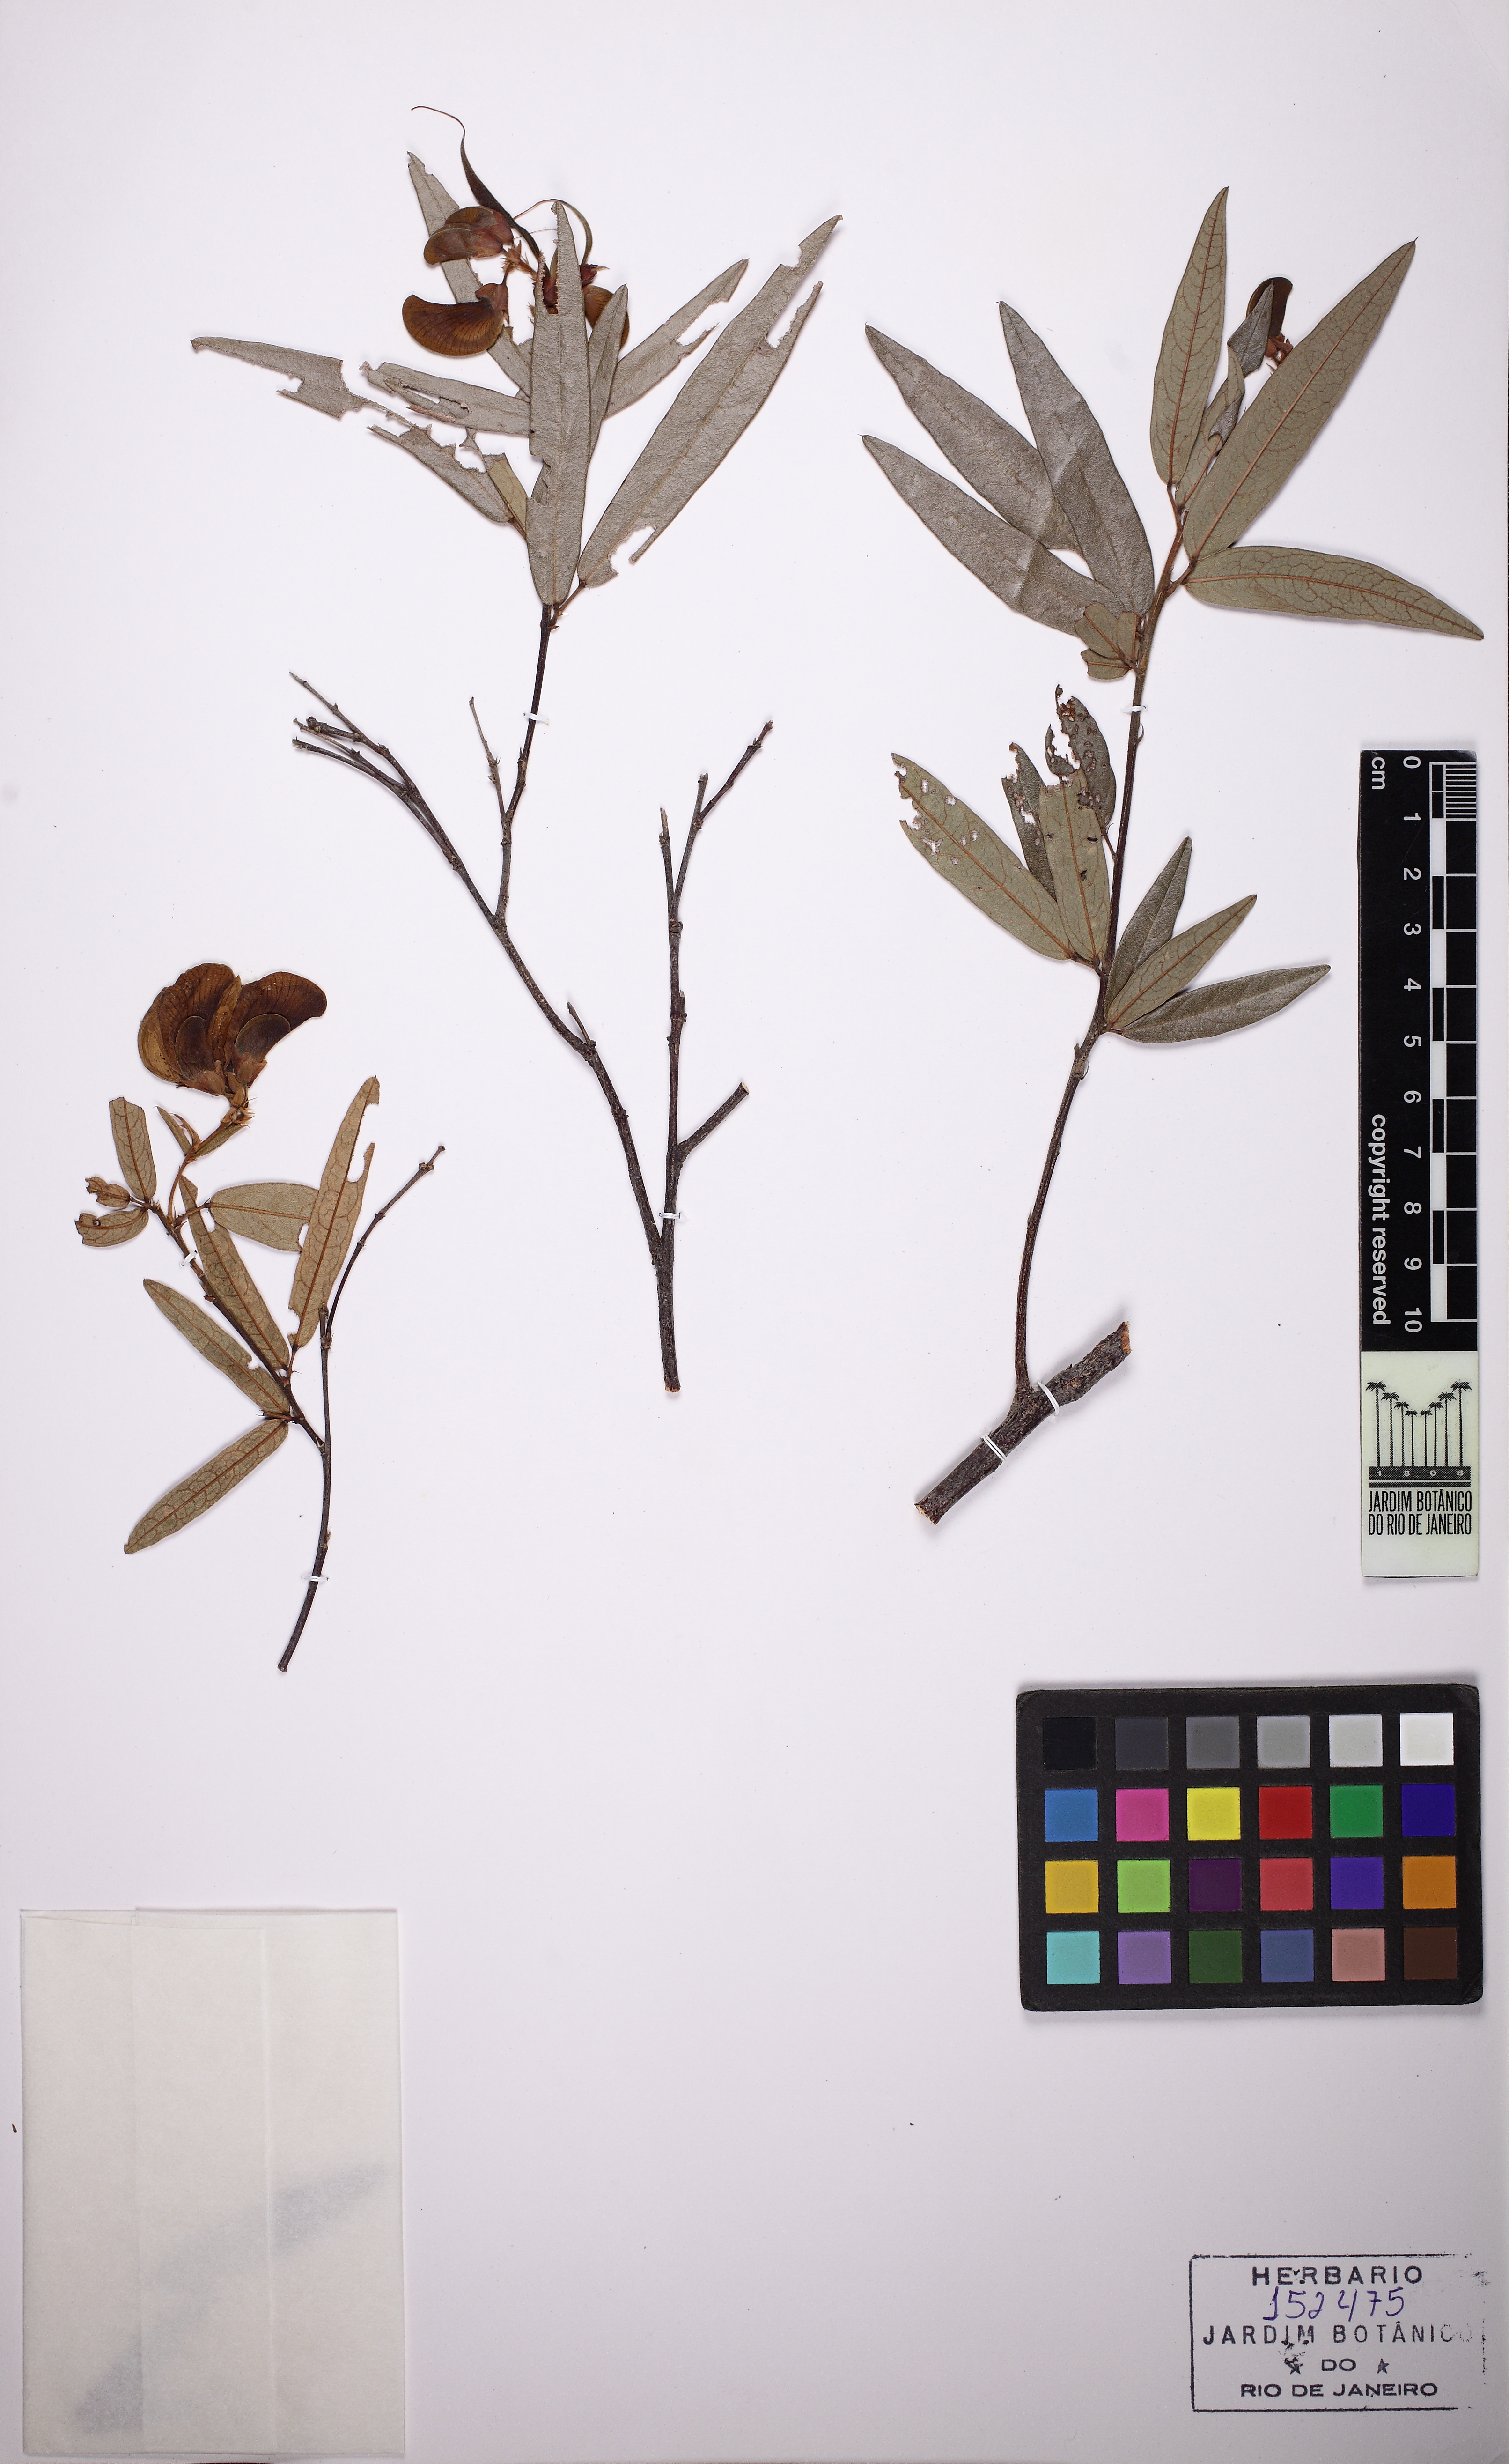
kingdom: Plantae
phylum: Tracheophyta
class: Magnoliopsida
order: Fabales
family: Fabaceae
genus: Periandra
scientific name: Periandra mediterranea
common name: Brazilian licorice
